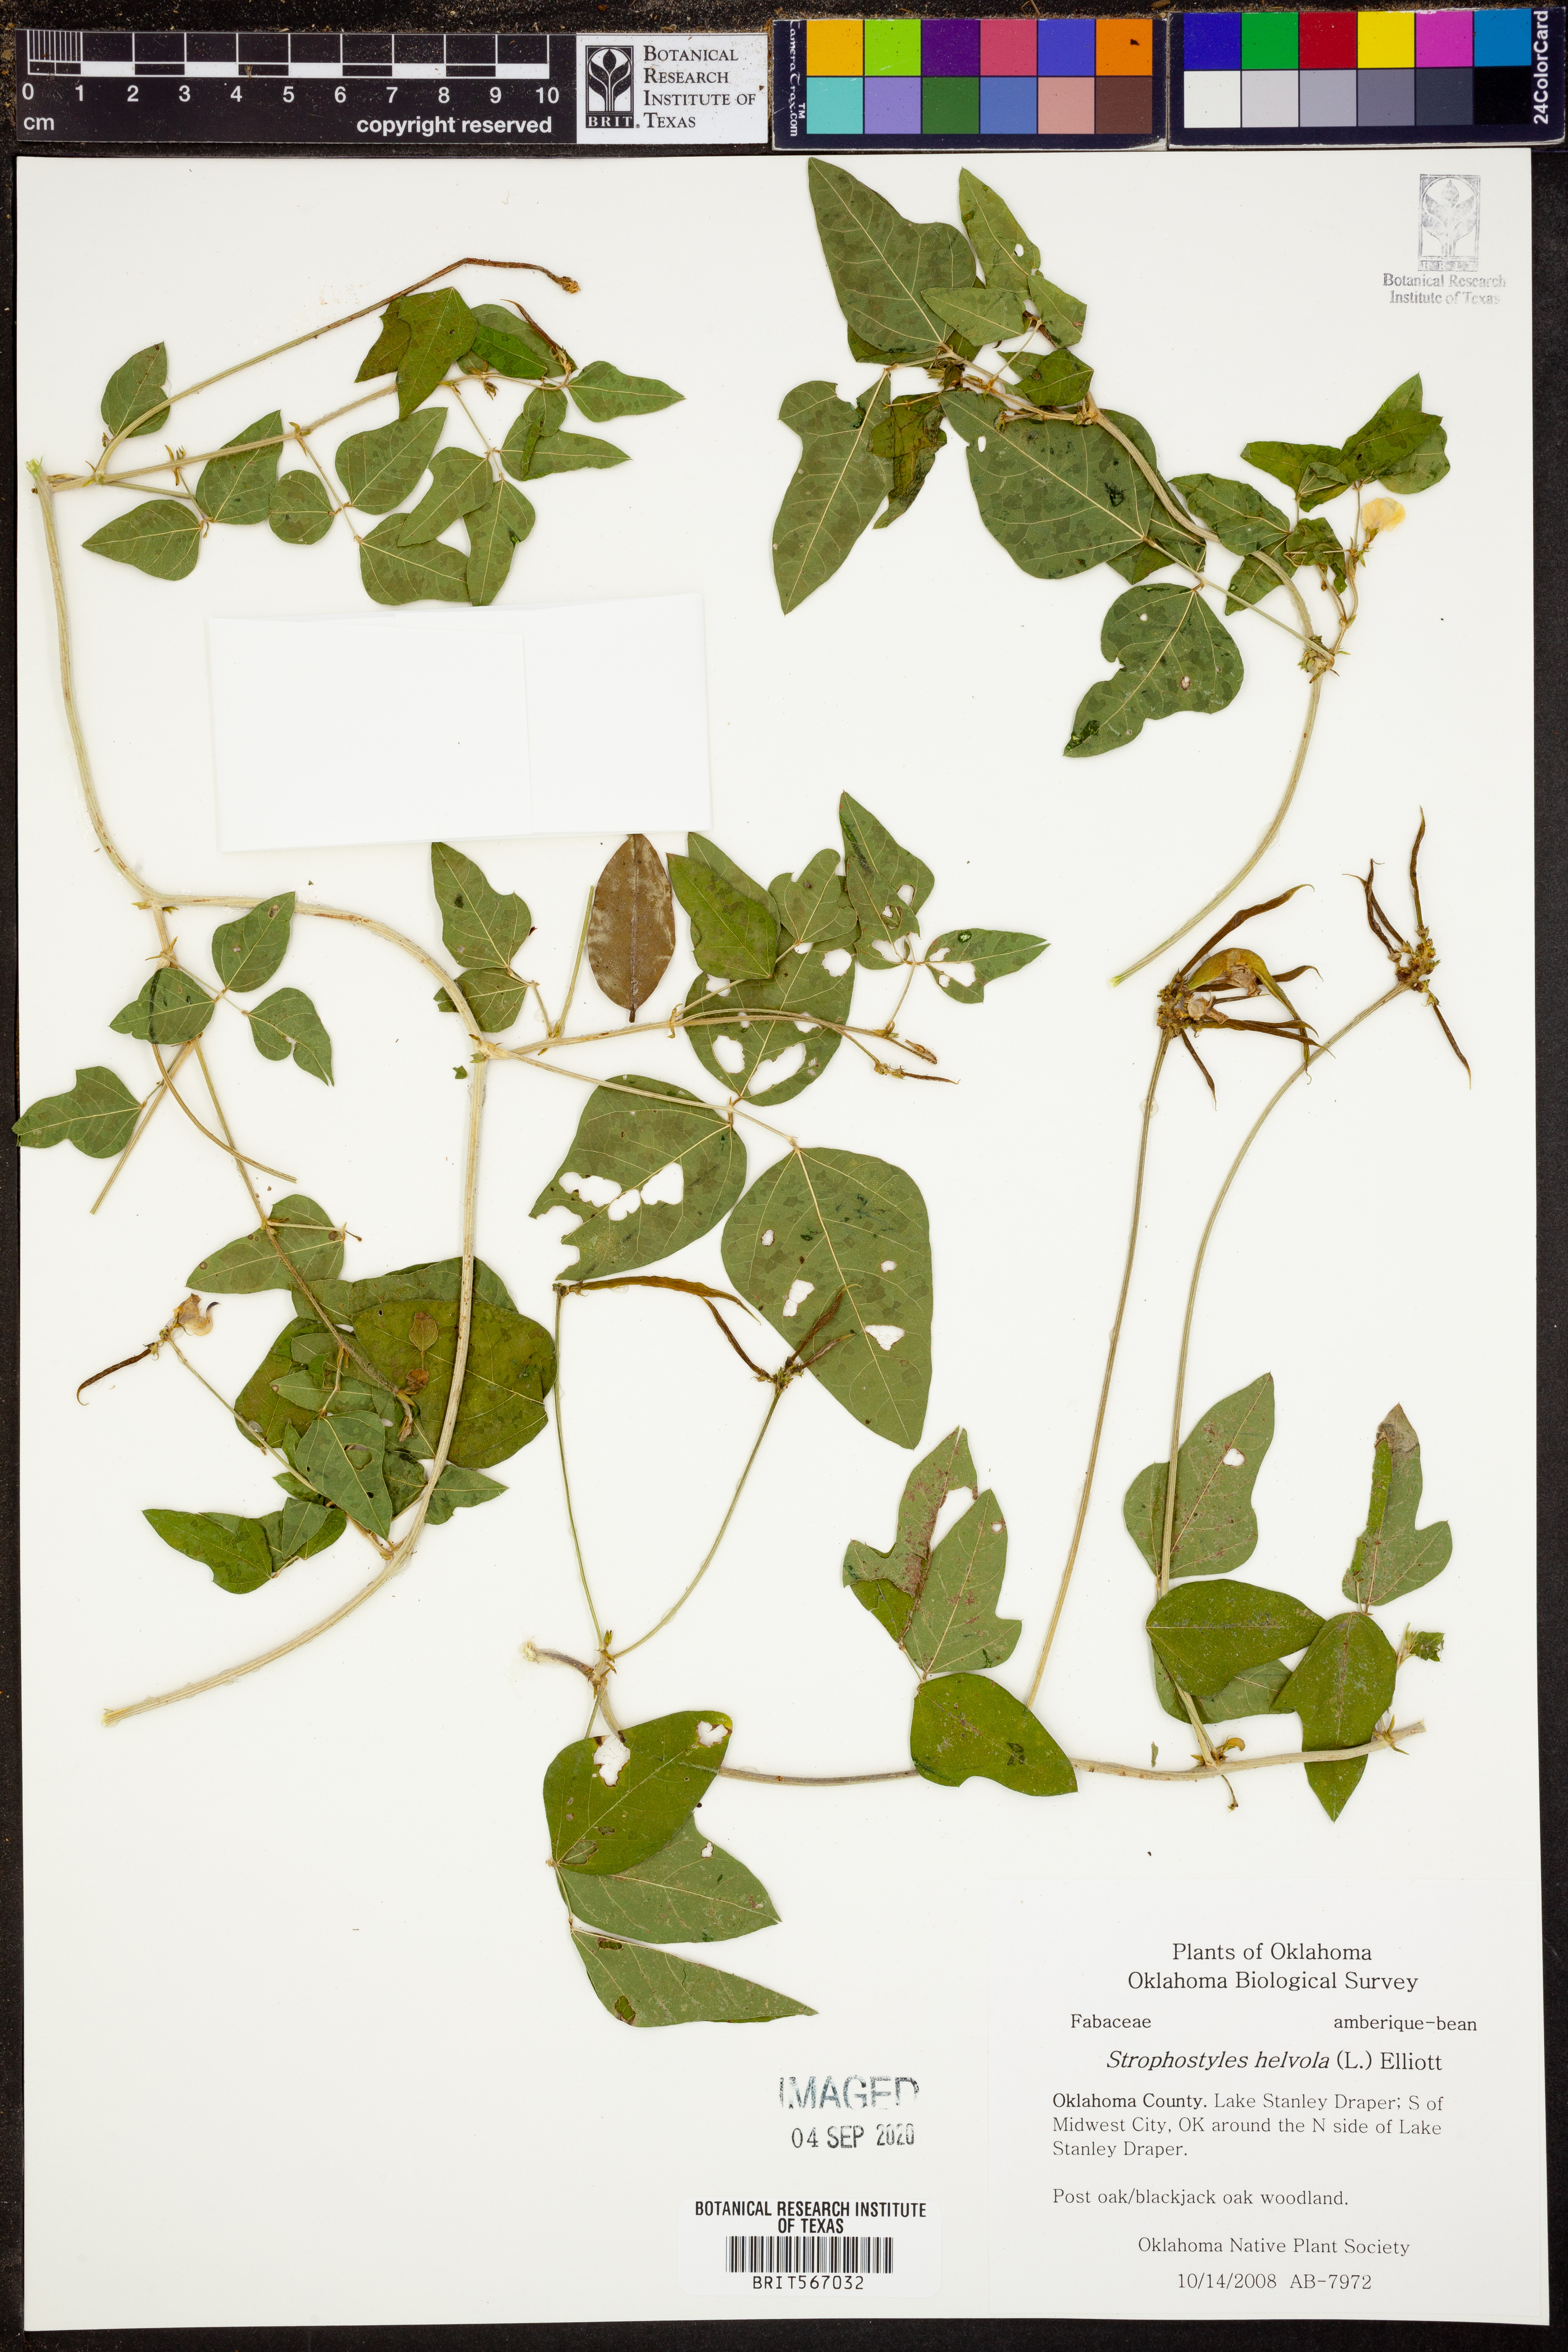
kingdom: Plantae
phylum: Tracheophyta
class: Magnoliopsida
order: Fabales
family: Fabaceae
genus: Strophostyles
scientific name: Strophostyles helvola
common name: Trailing wild bean
